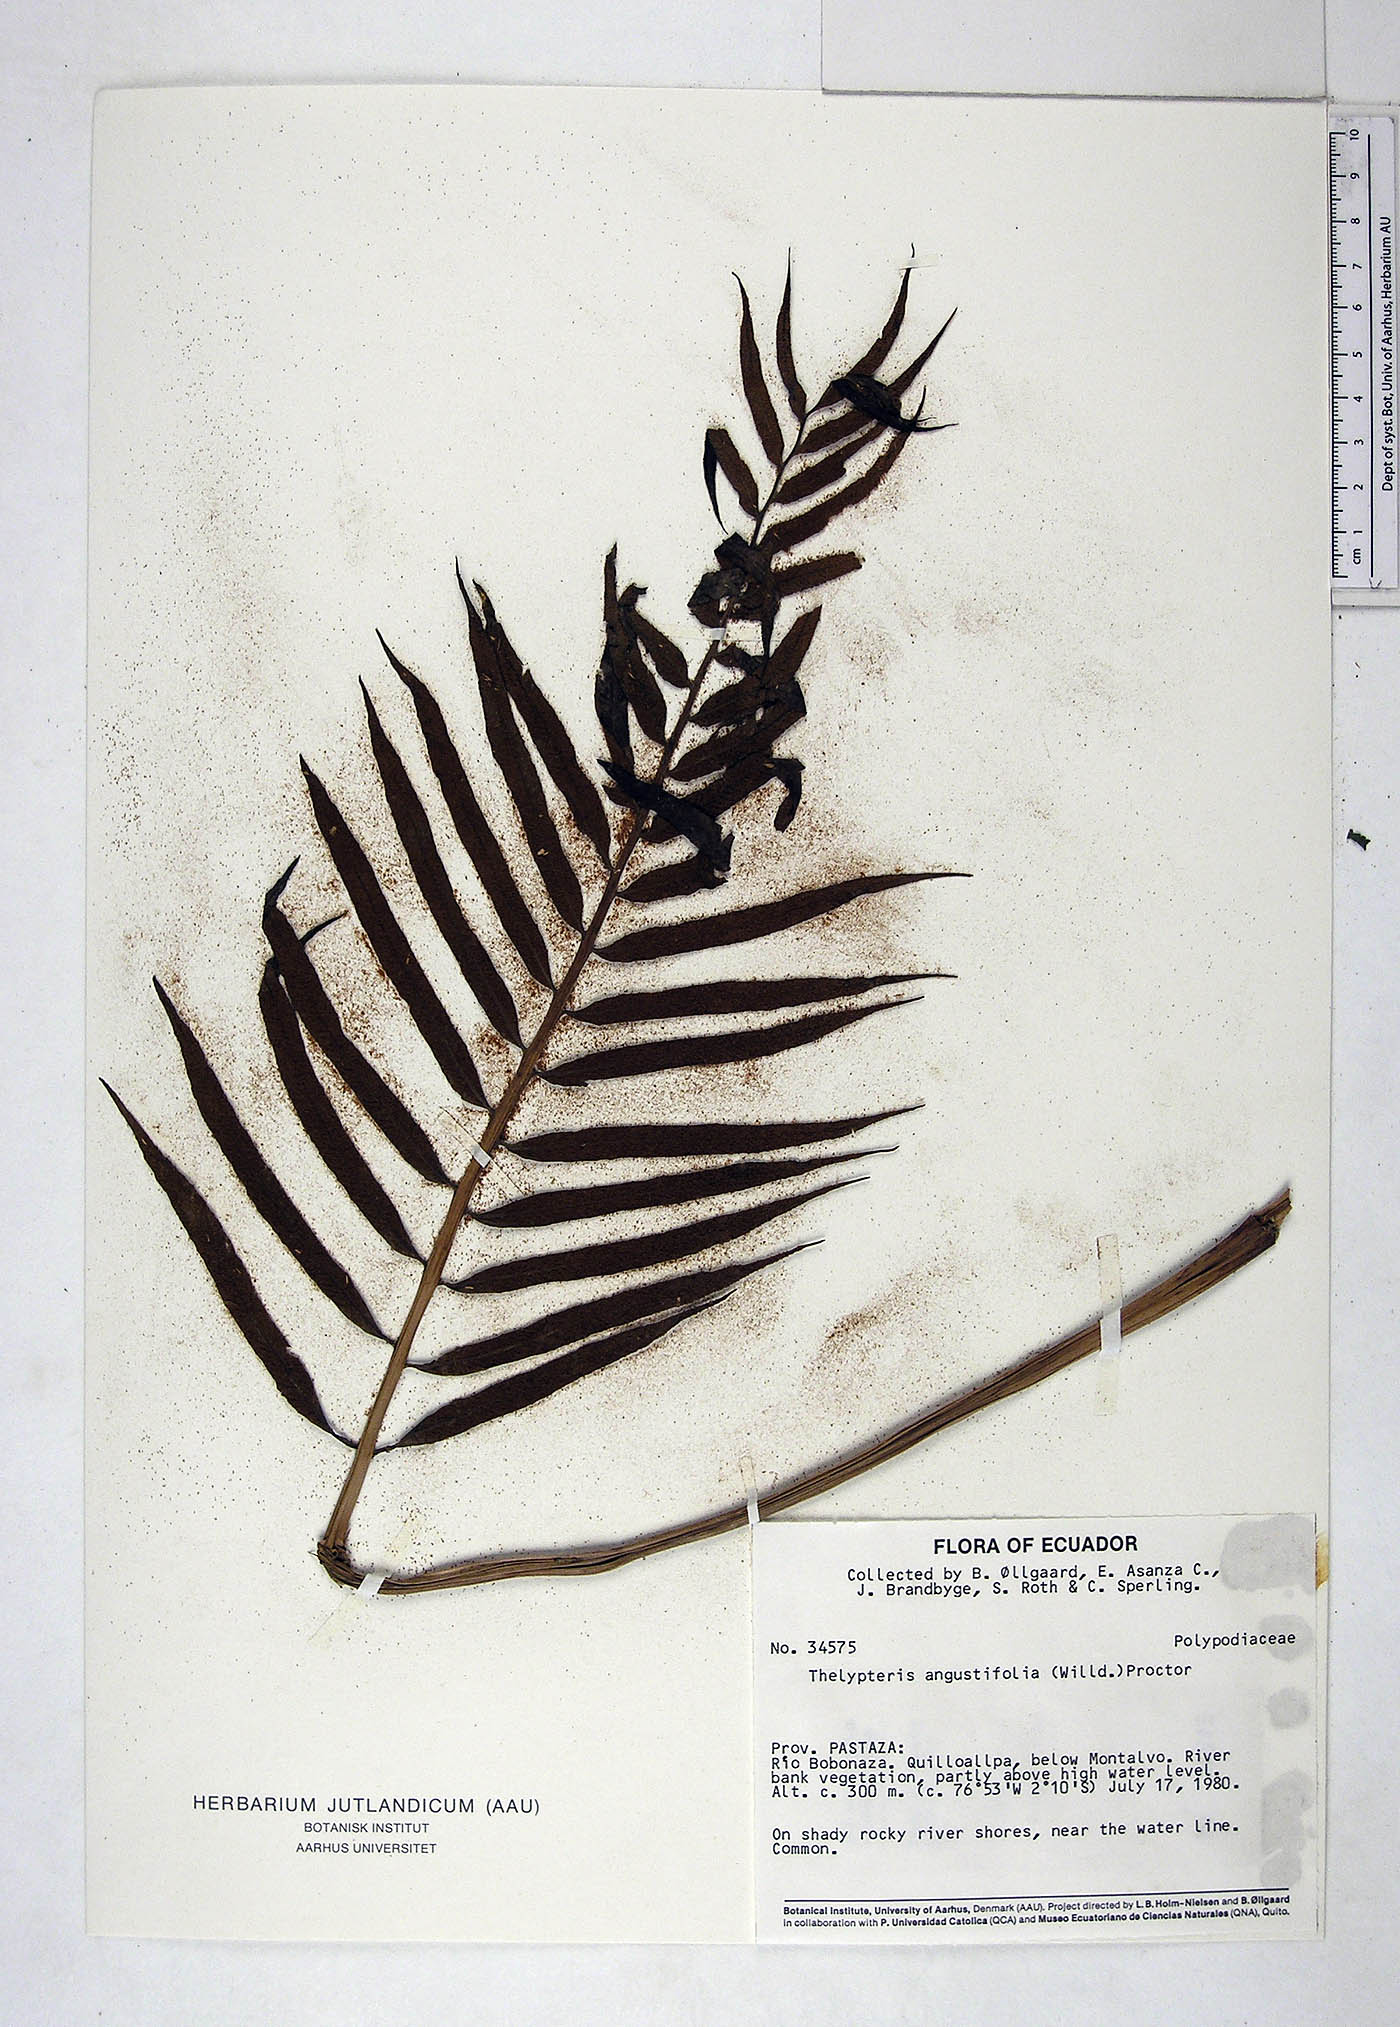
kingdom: Plantae
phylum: Tracheophyta
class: Polypodiopsida
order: Polypodiales
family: Thelypteridaceae
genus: Meniscium
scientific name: Meniscium angustifolium
